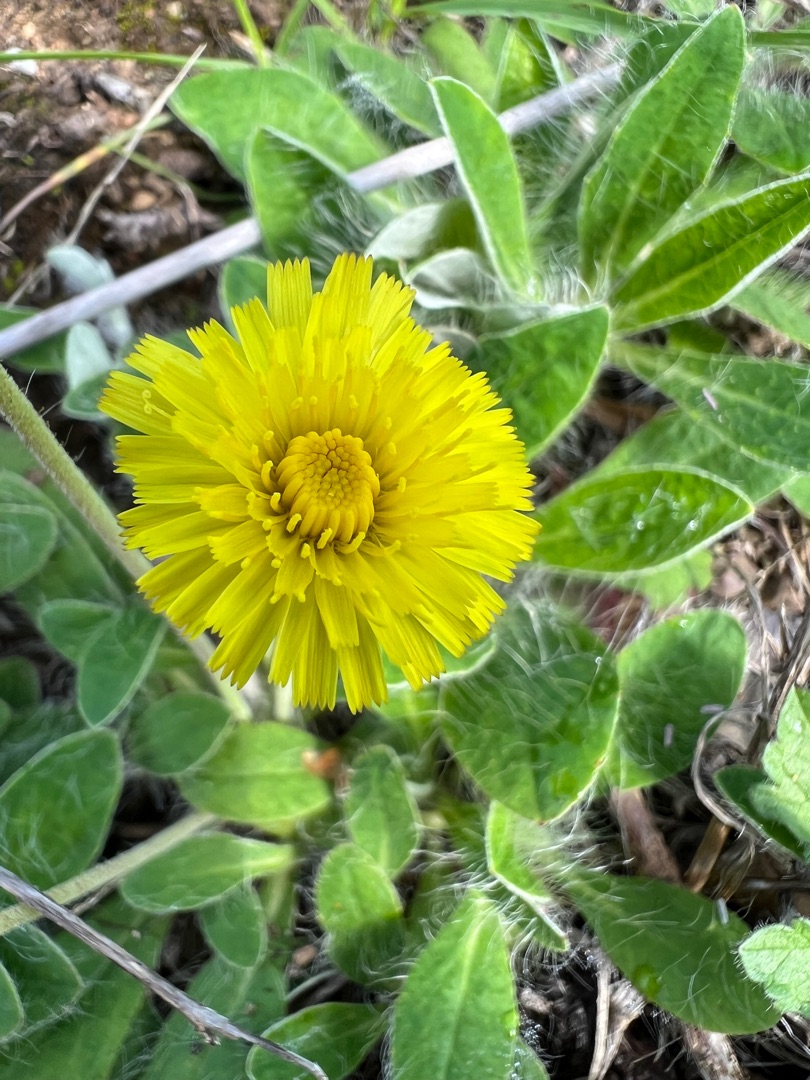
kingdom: Plantae
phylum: Tracheophyta
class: Magnoliopsida
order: Asterales
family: Asteraceae
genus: Pilosella
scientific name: Pilosella officinarum
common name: Håret høgeurt
